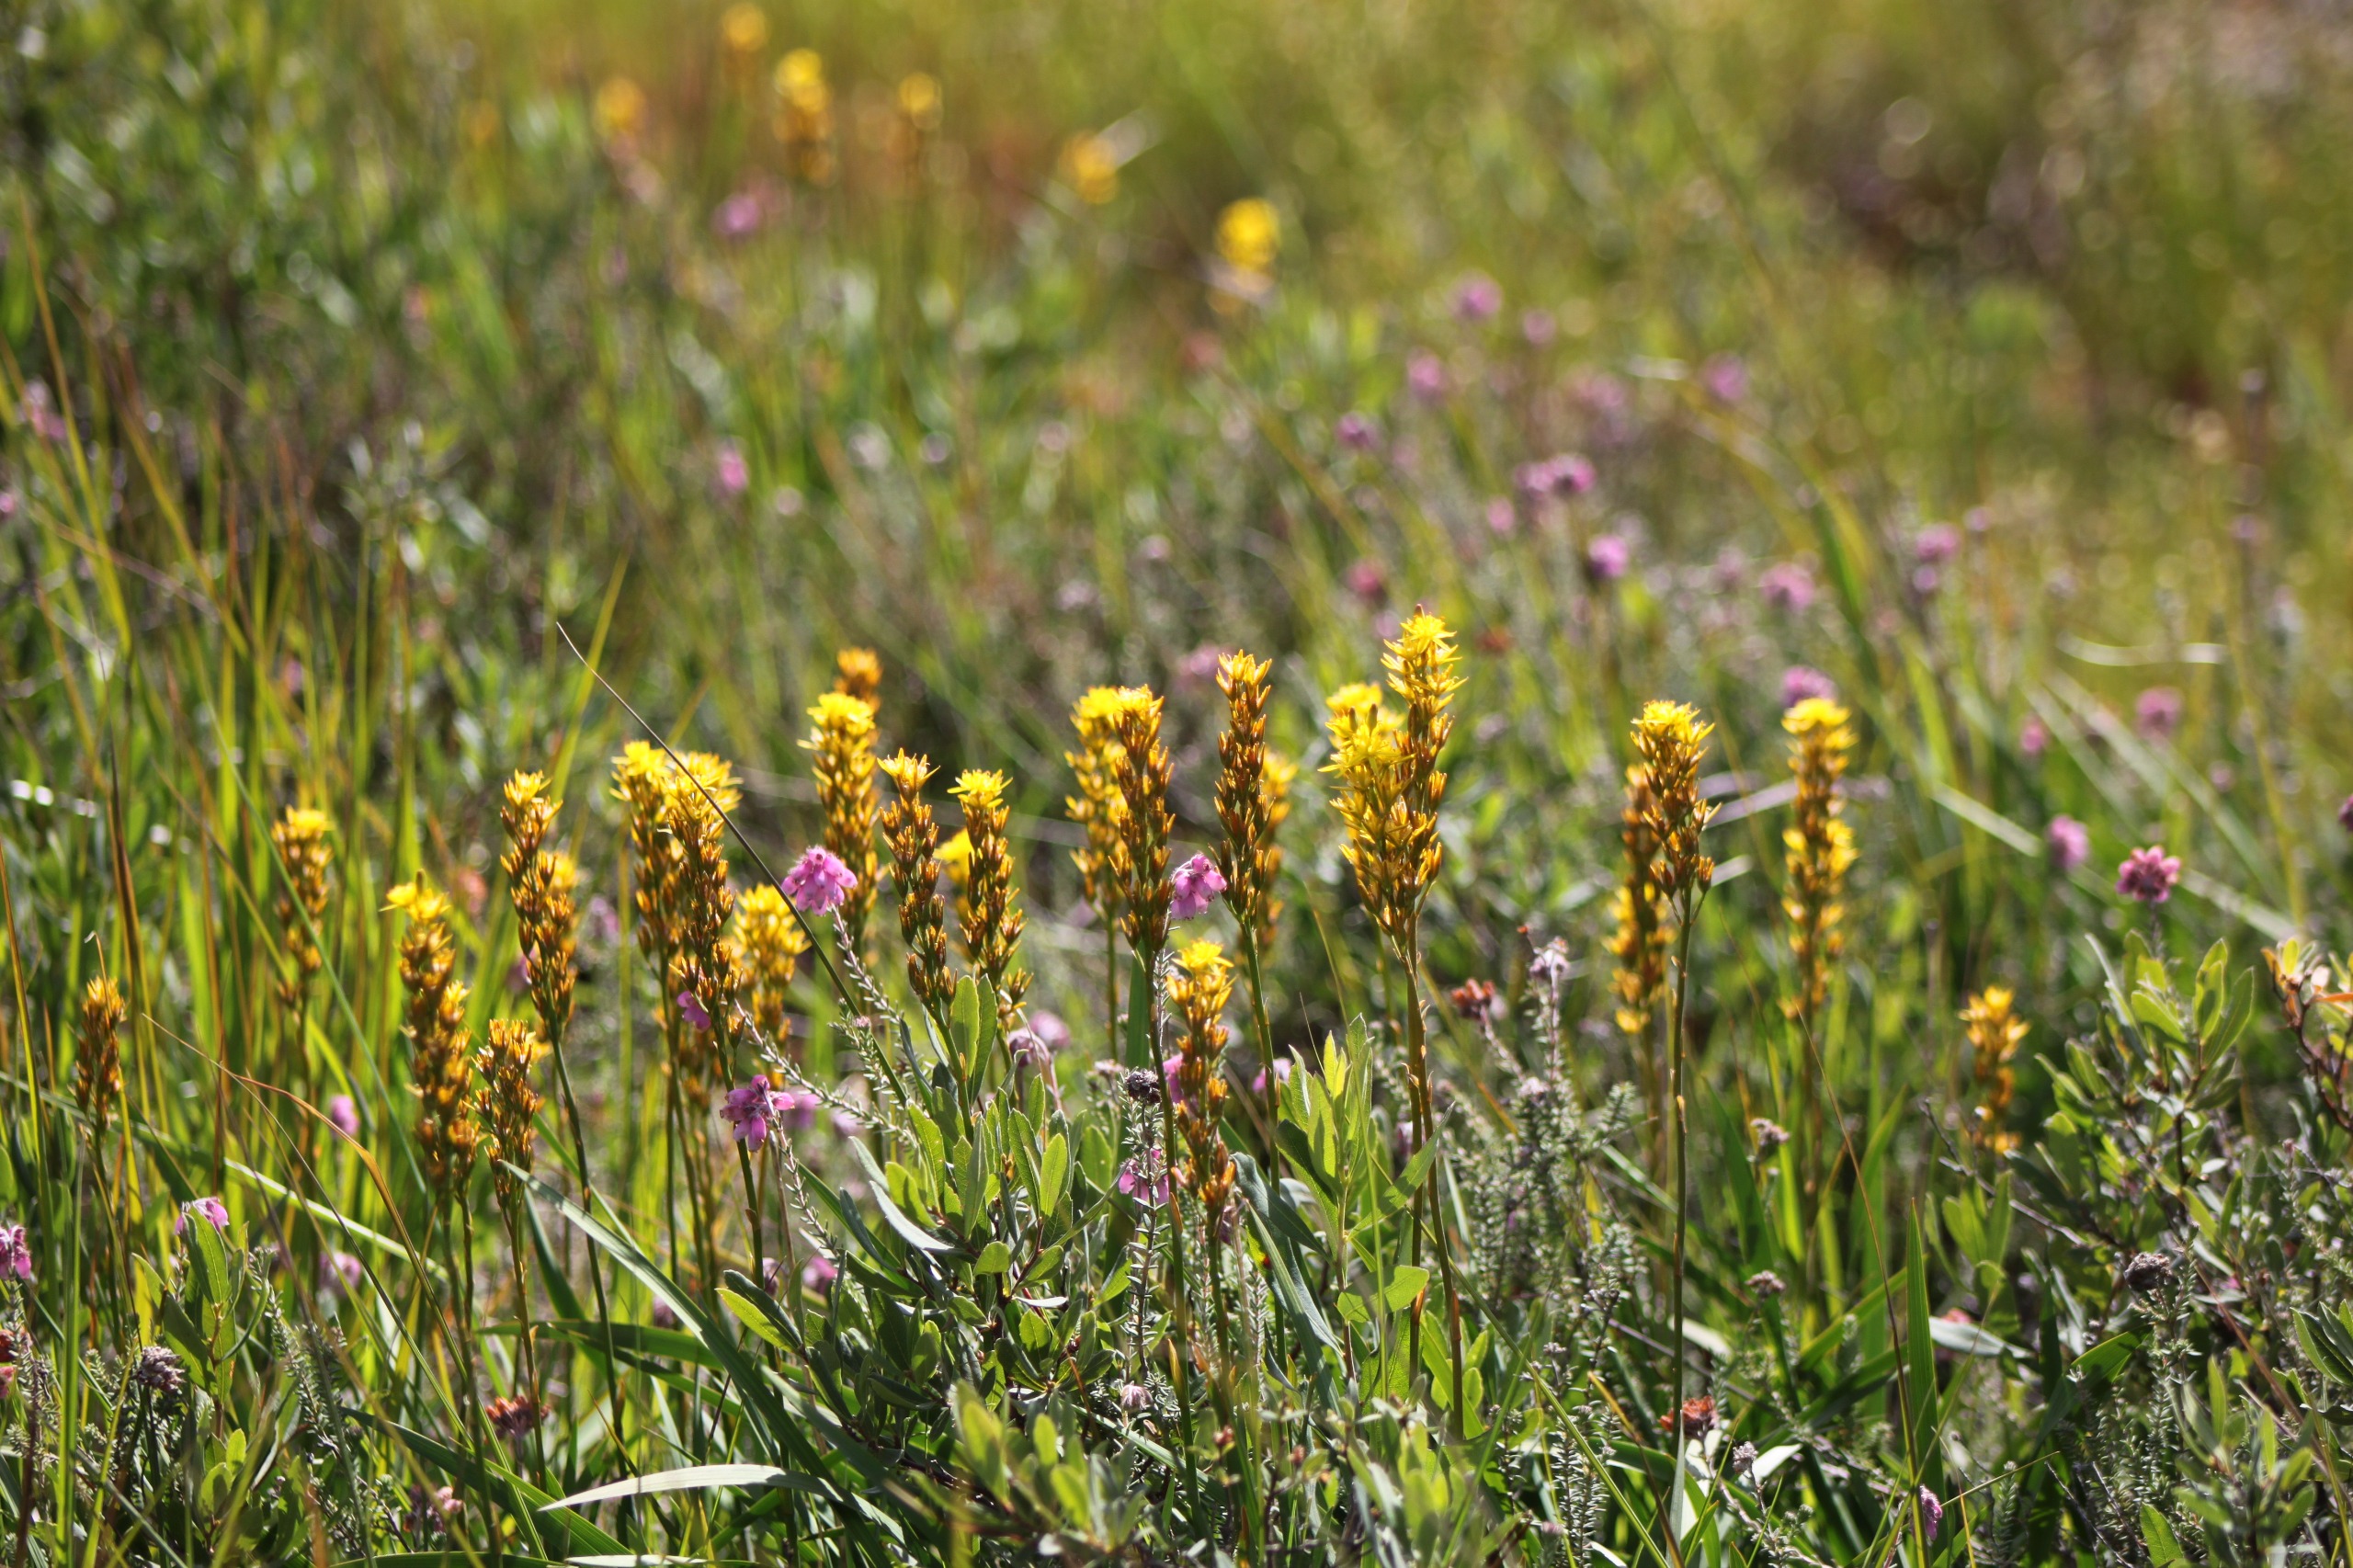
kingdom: Plantae
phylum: Tracheophyta
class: Liliopsida
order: Dioscoreales
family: Nartheciaceae
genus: Narthecium
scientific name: Narthecium ossifragum
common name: Benbræk
